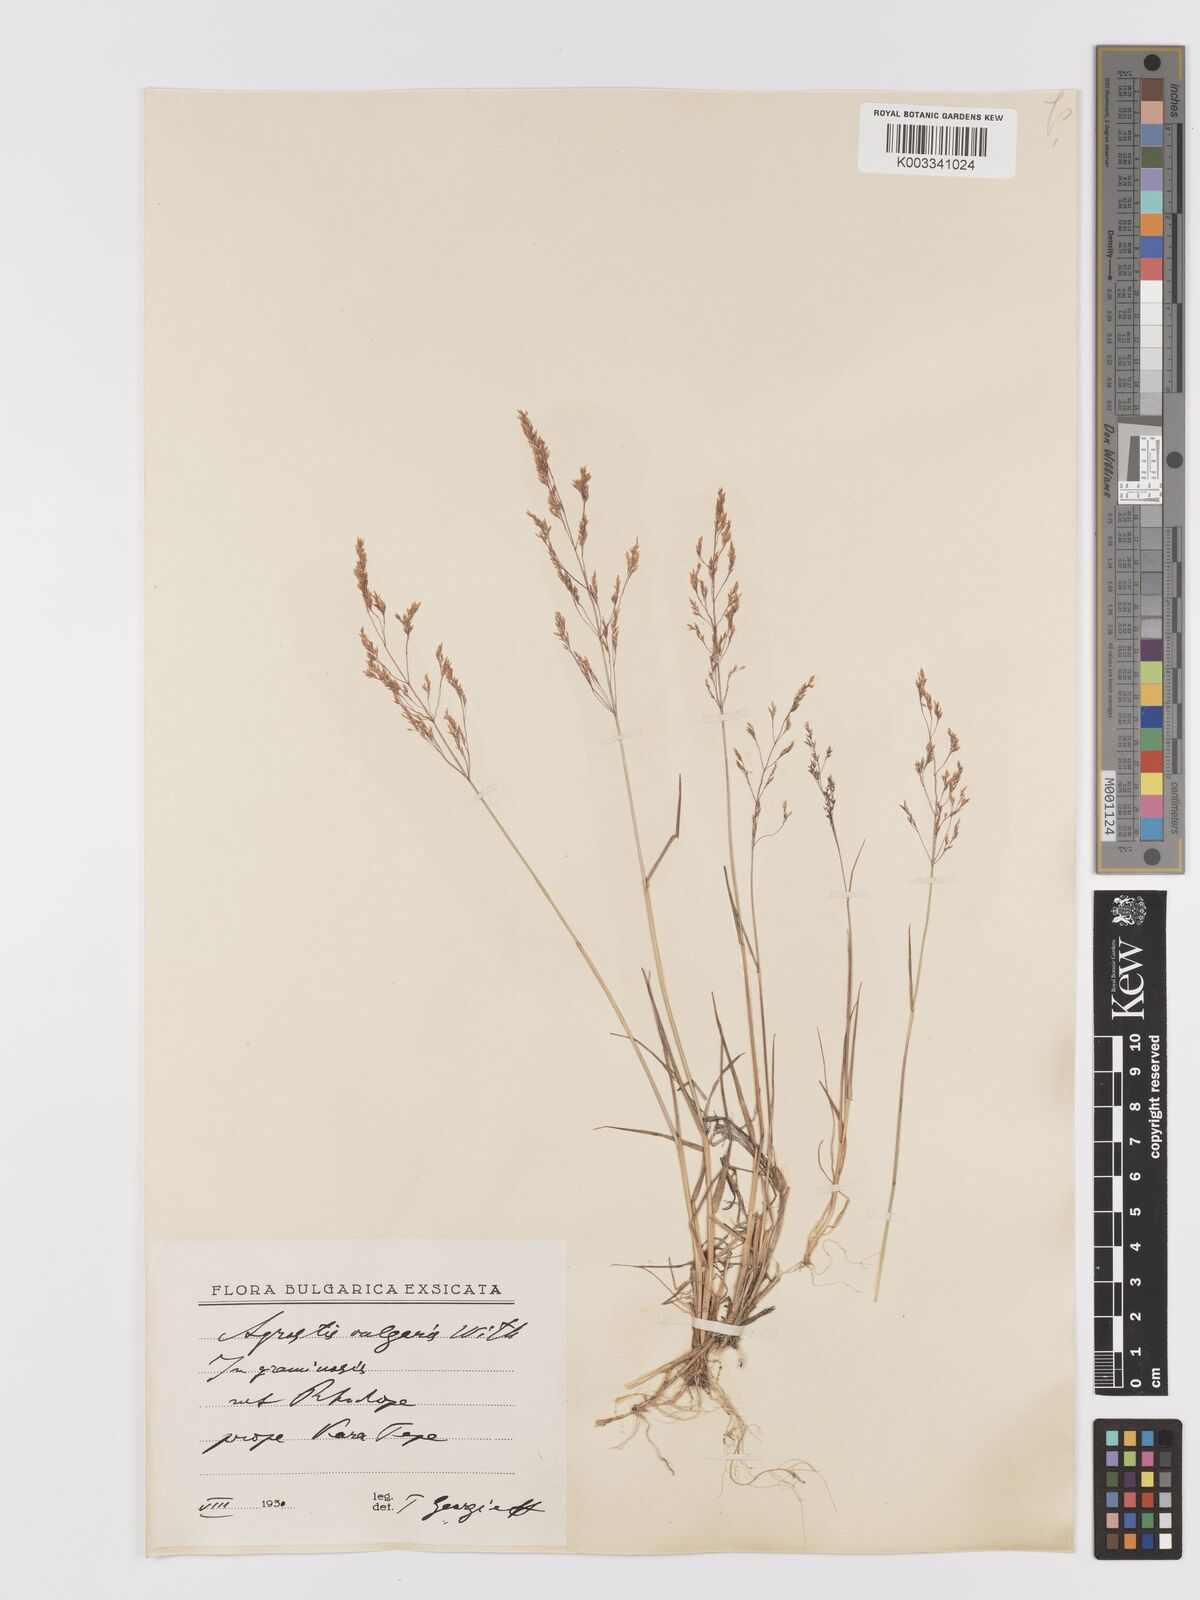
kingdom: Plantae
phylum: Tracheophyta
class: Liliopsida
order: Poales
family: Poaceae
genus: Agrostis
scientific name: Agrostis capillaris
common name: Colonial bentgrass
